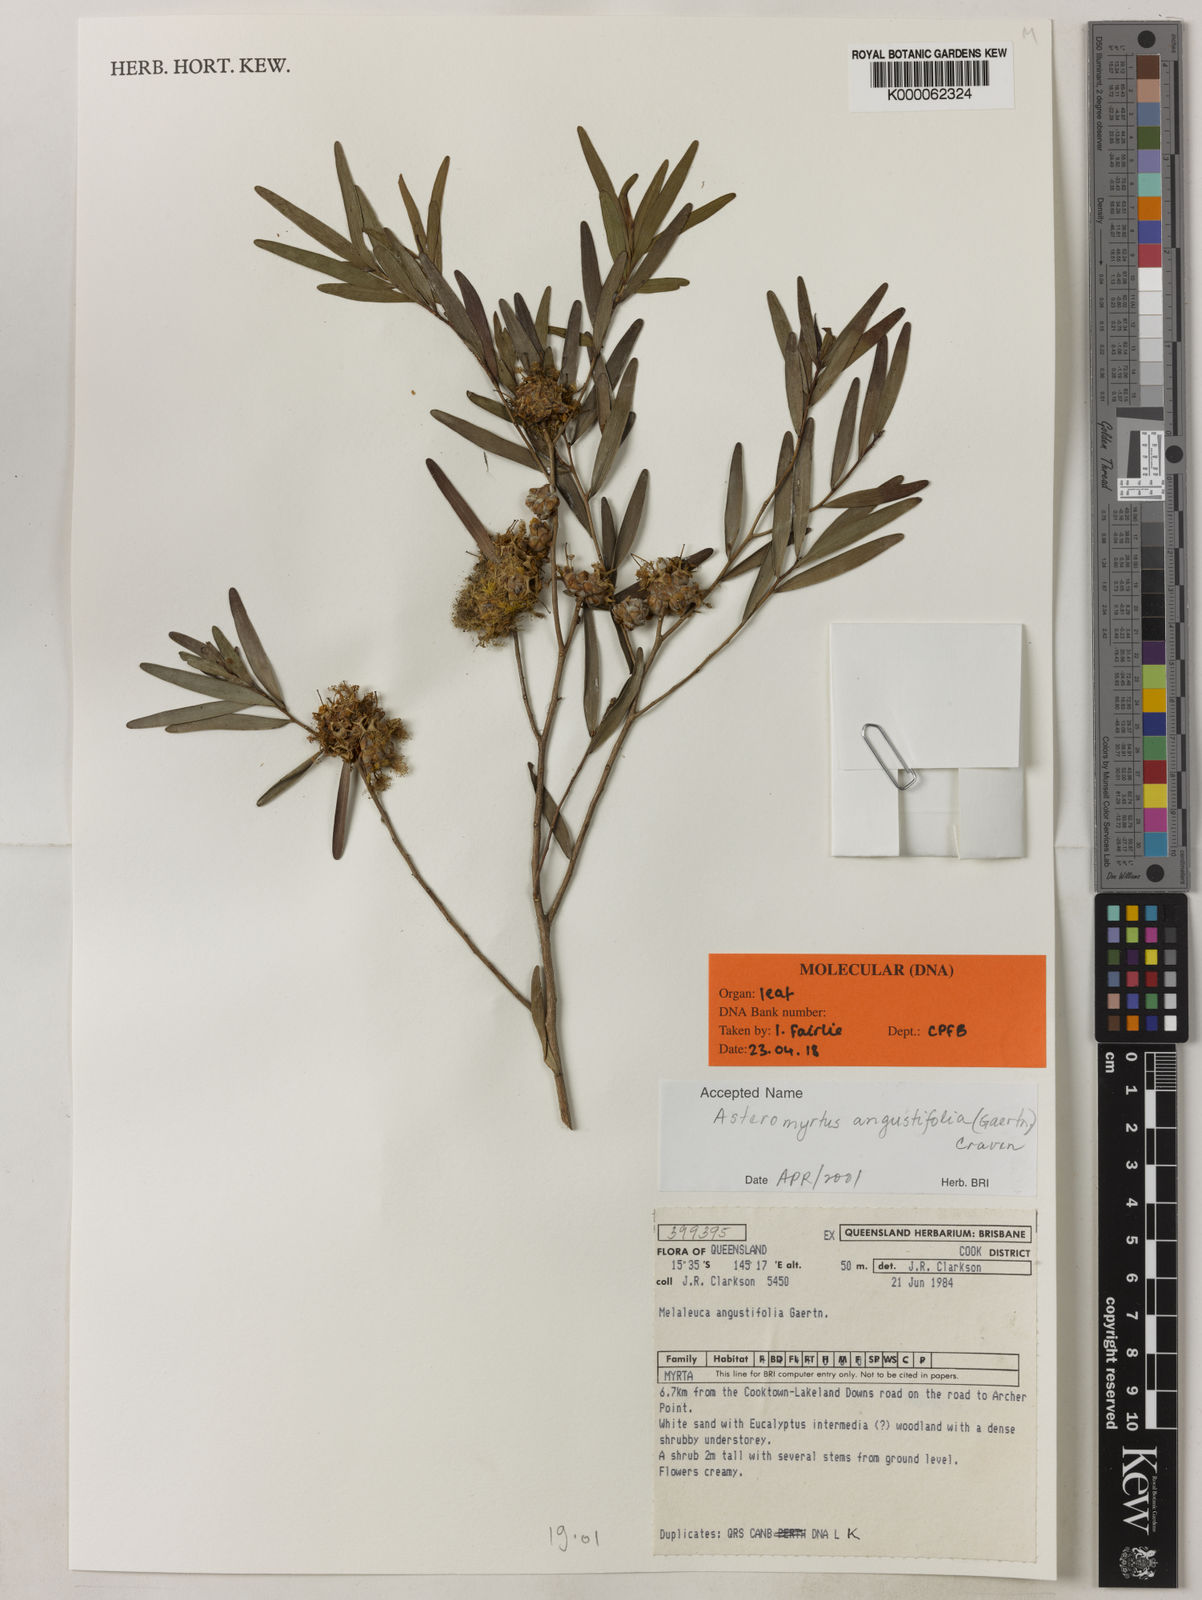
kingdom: Plantae
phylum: Tracheophyta
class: Magnoliopsida
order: Myrtales
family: Myrtaceae
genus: Asteromyrtus
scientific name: Asteromyrtus angustifolia
